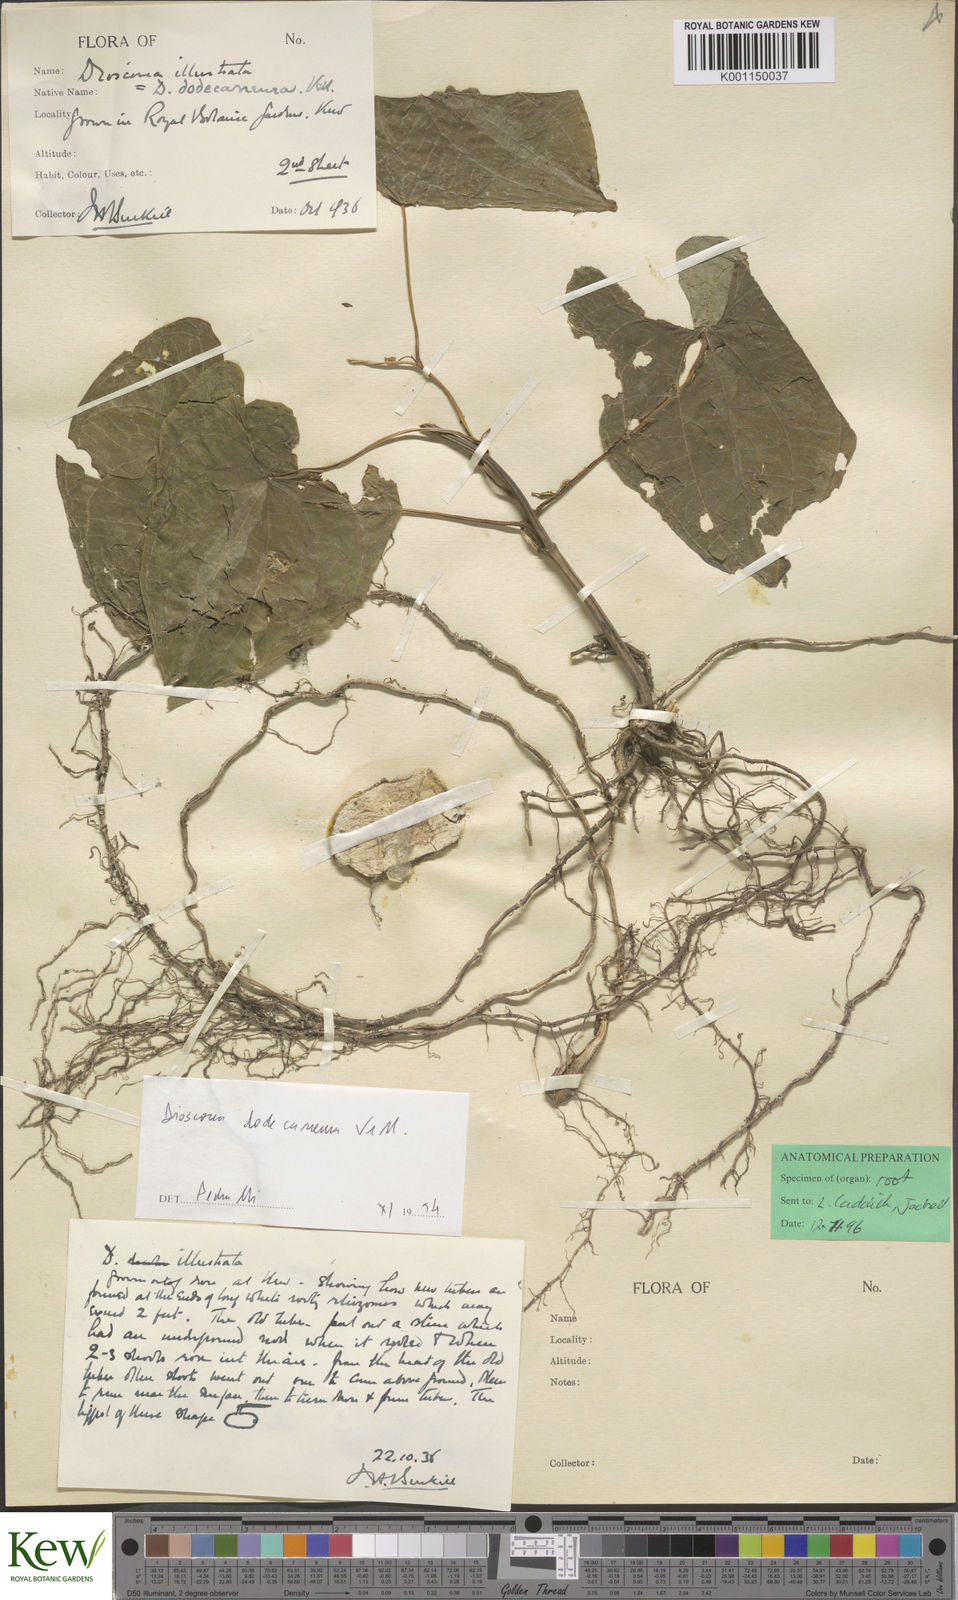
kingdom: Plantae
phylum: Tracheophyta
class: Liliopsida
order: Dioscoreales
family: Dioscoreaceae
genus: Dioscorea
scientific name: Dioscorea dodecaneura
